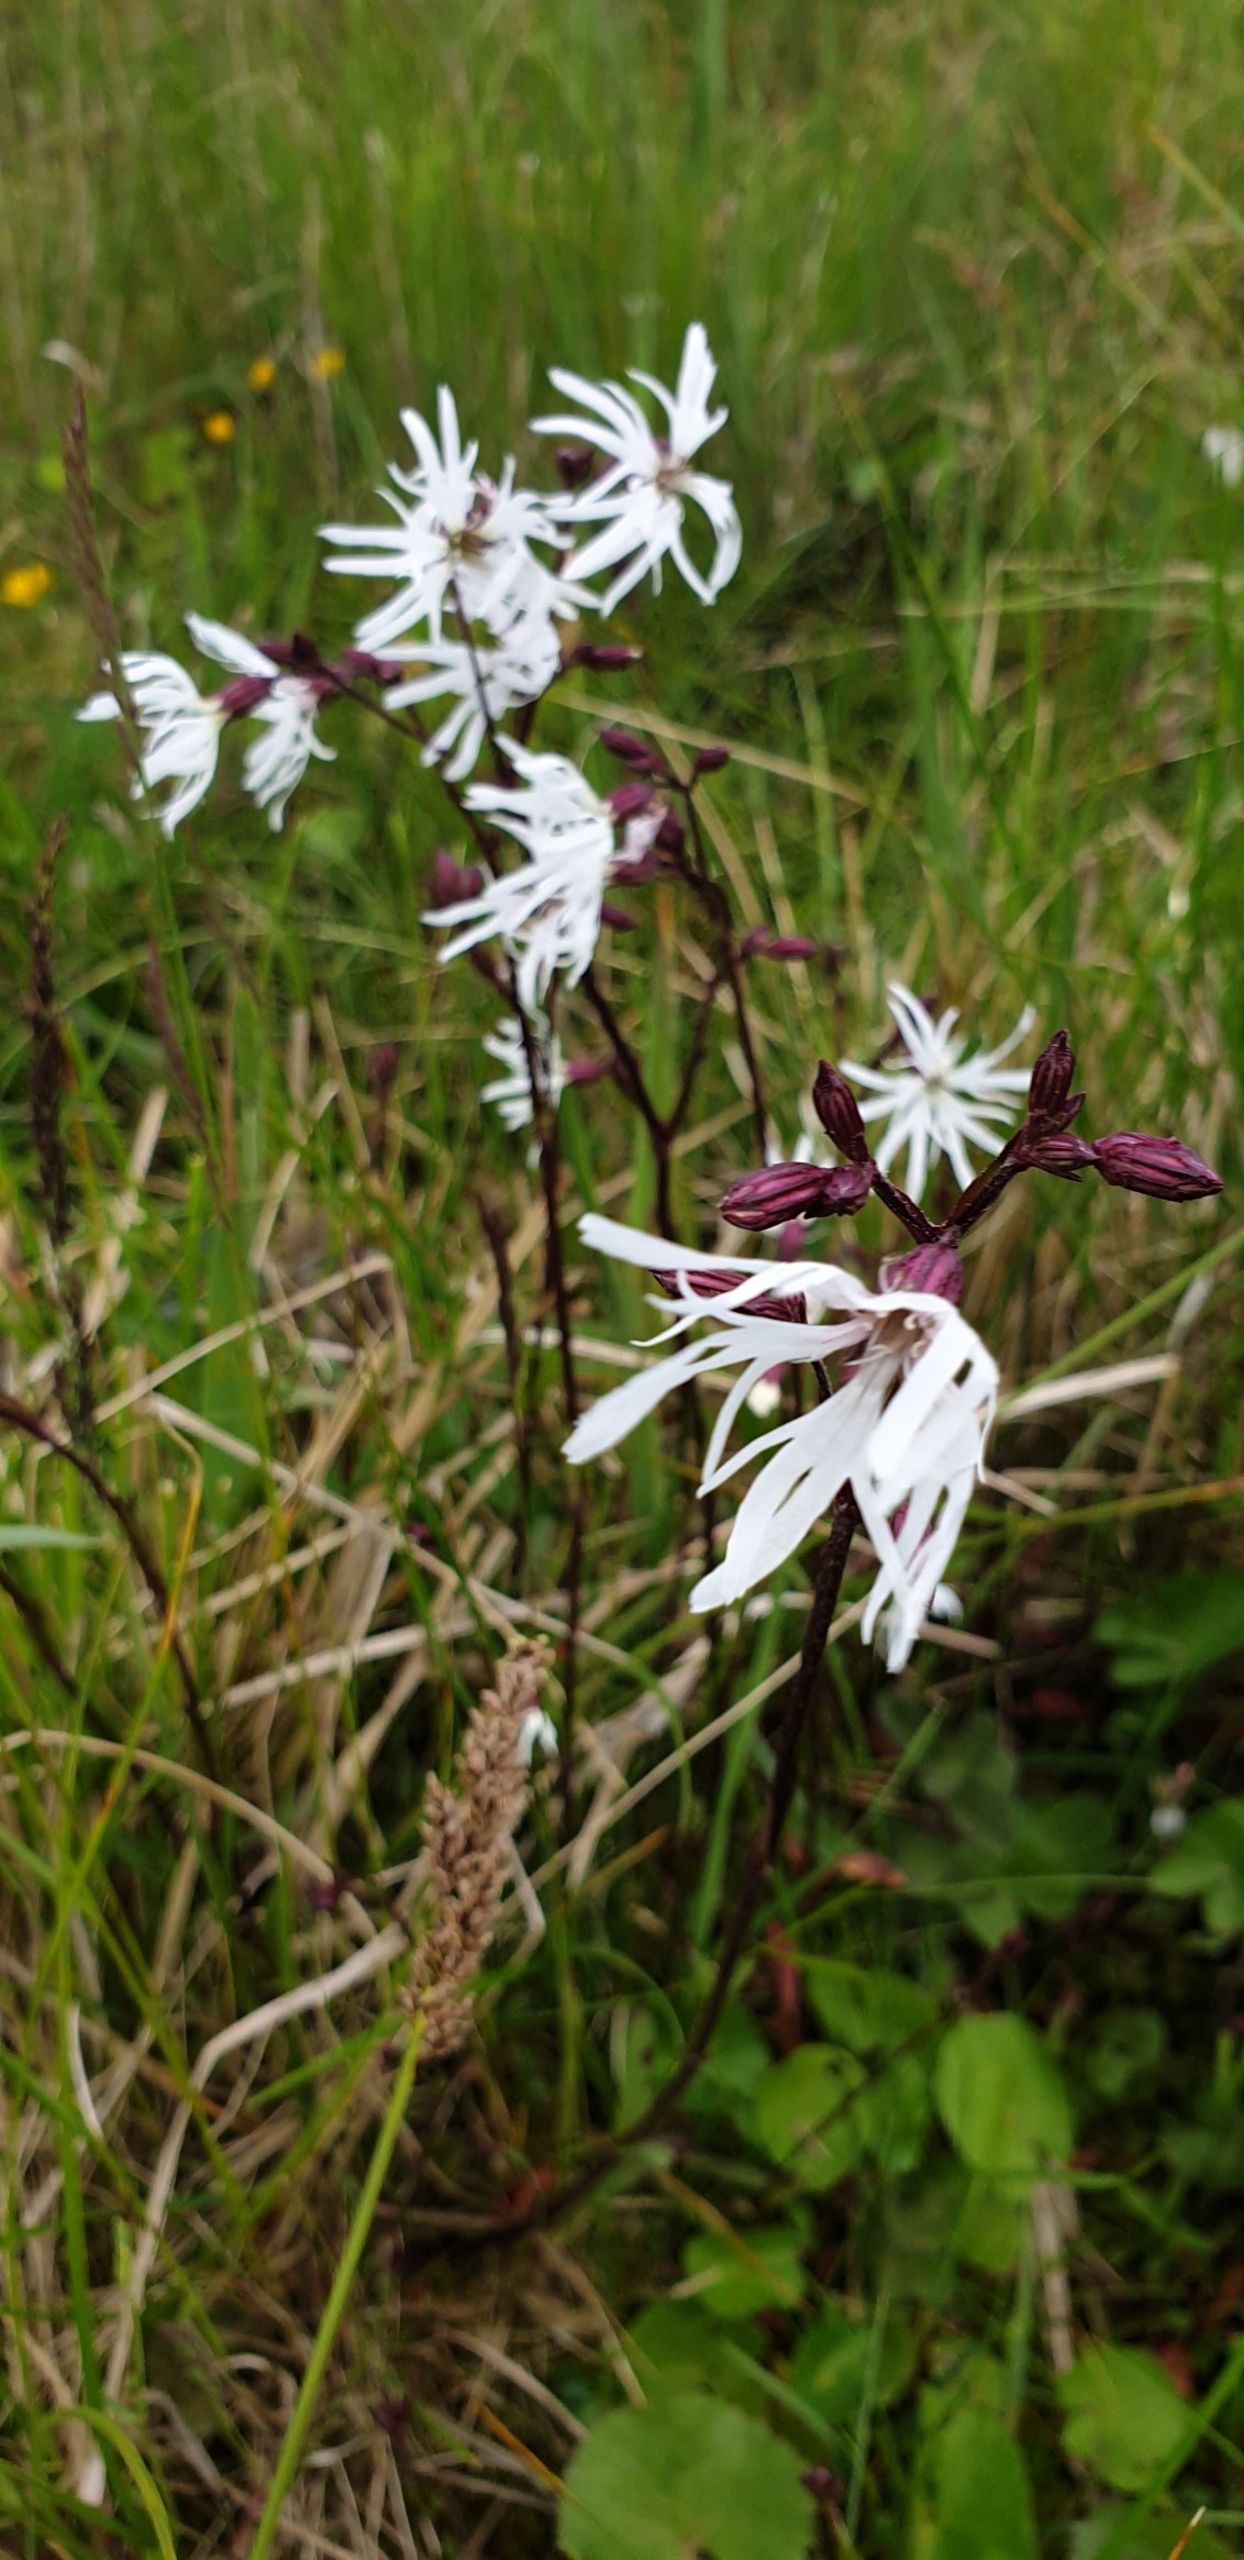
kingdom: Plantae
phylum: Tracheophyta
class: Magnoliopsida
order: Caryophyllales
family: Caryophyllaceae
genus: Silene
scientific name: Silene flos-cuculi
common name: Trævlekrone
